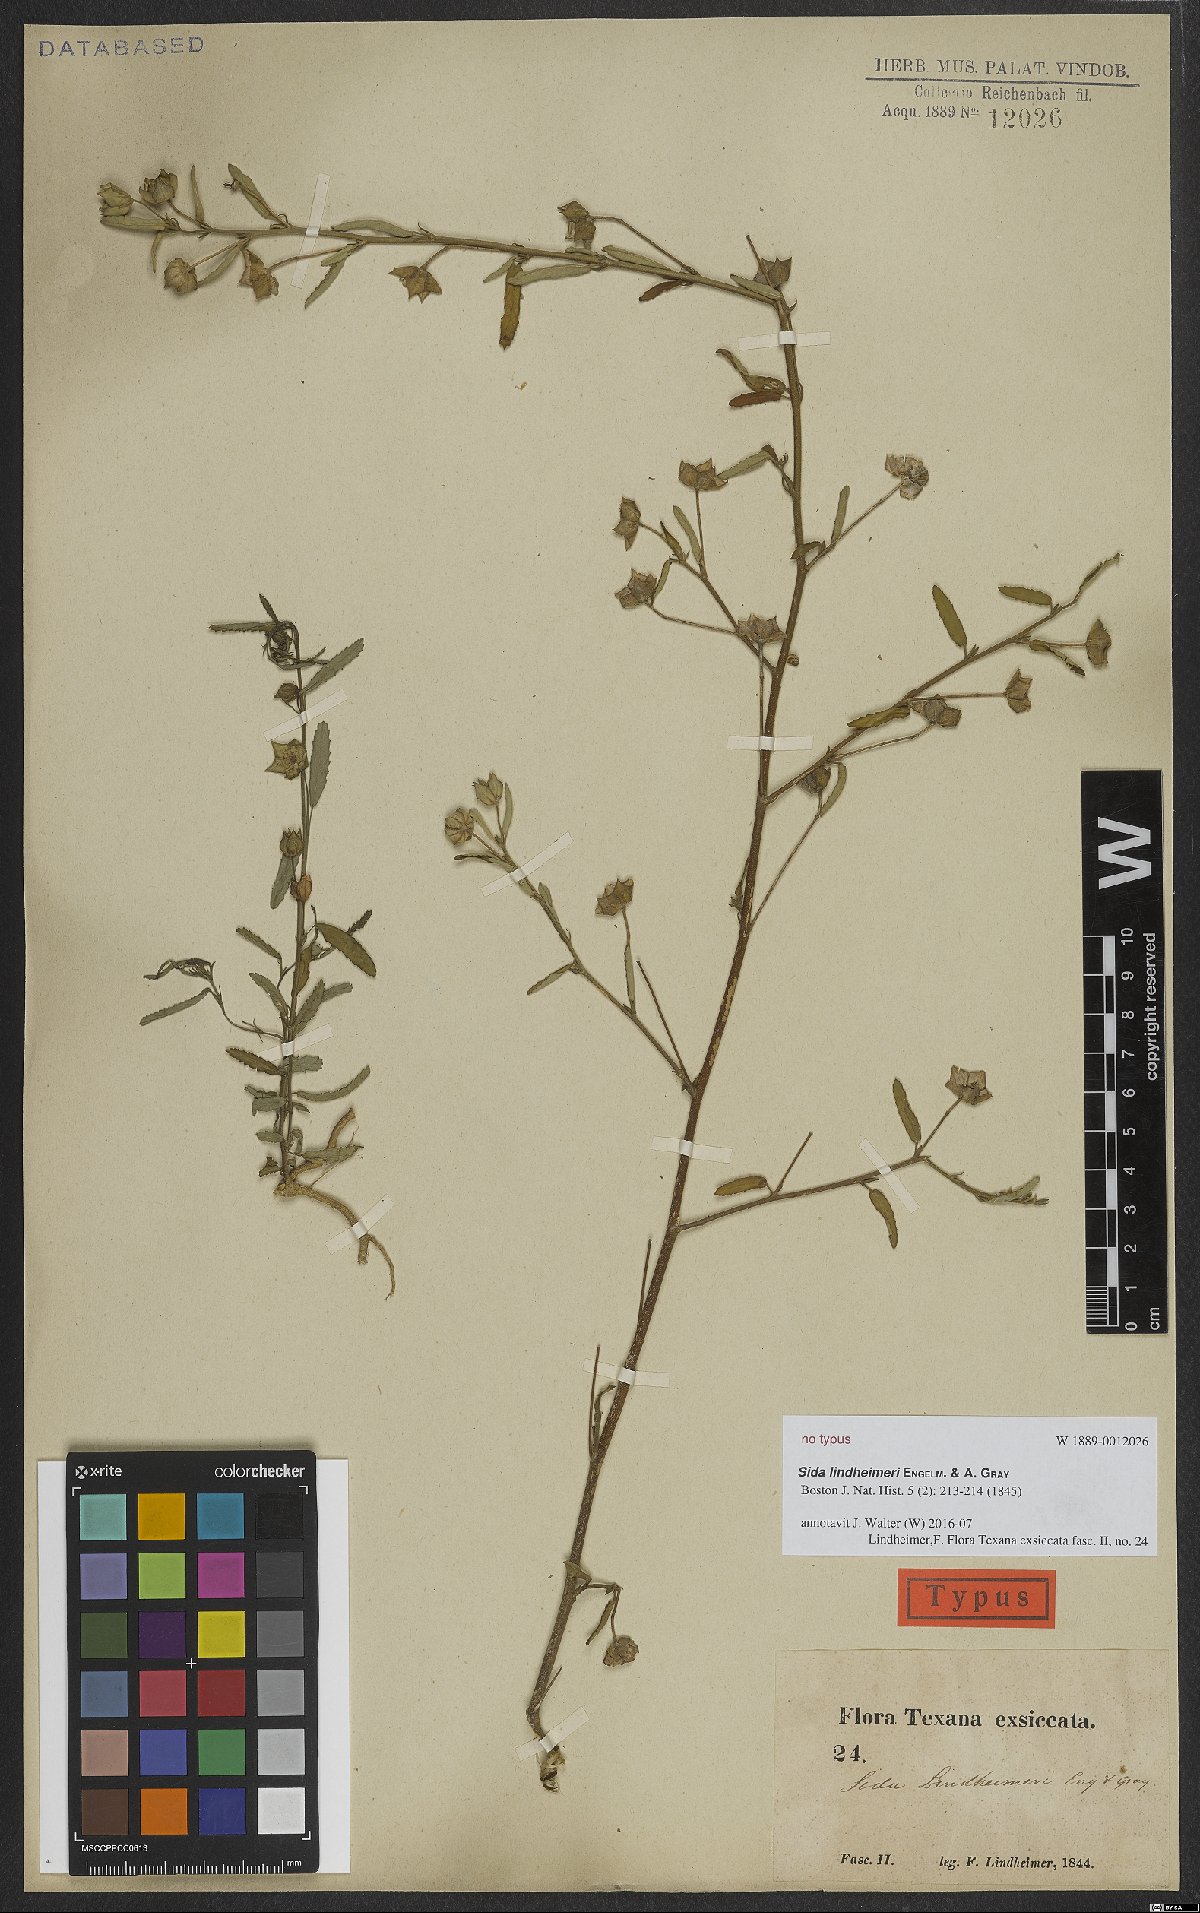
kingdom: Plantae
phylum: Tracheophyta
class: Magnoliopsida
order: Malvales
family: Malvaceae
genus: Sida
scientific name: Sida lindheimeri
